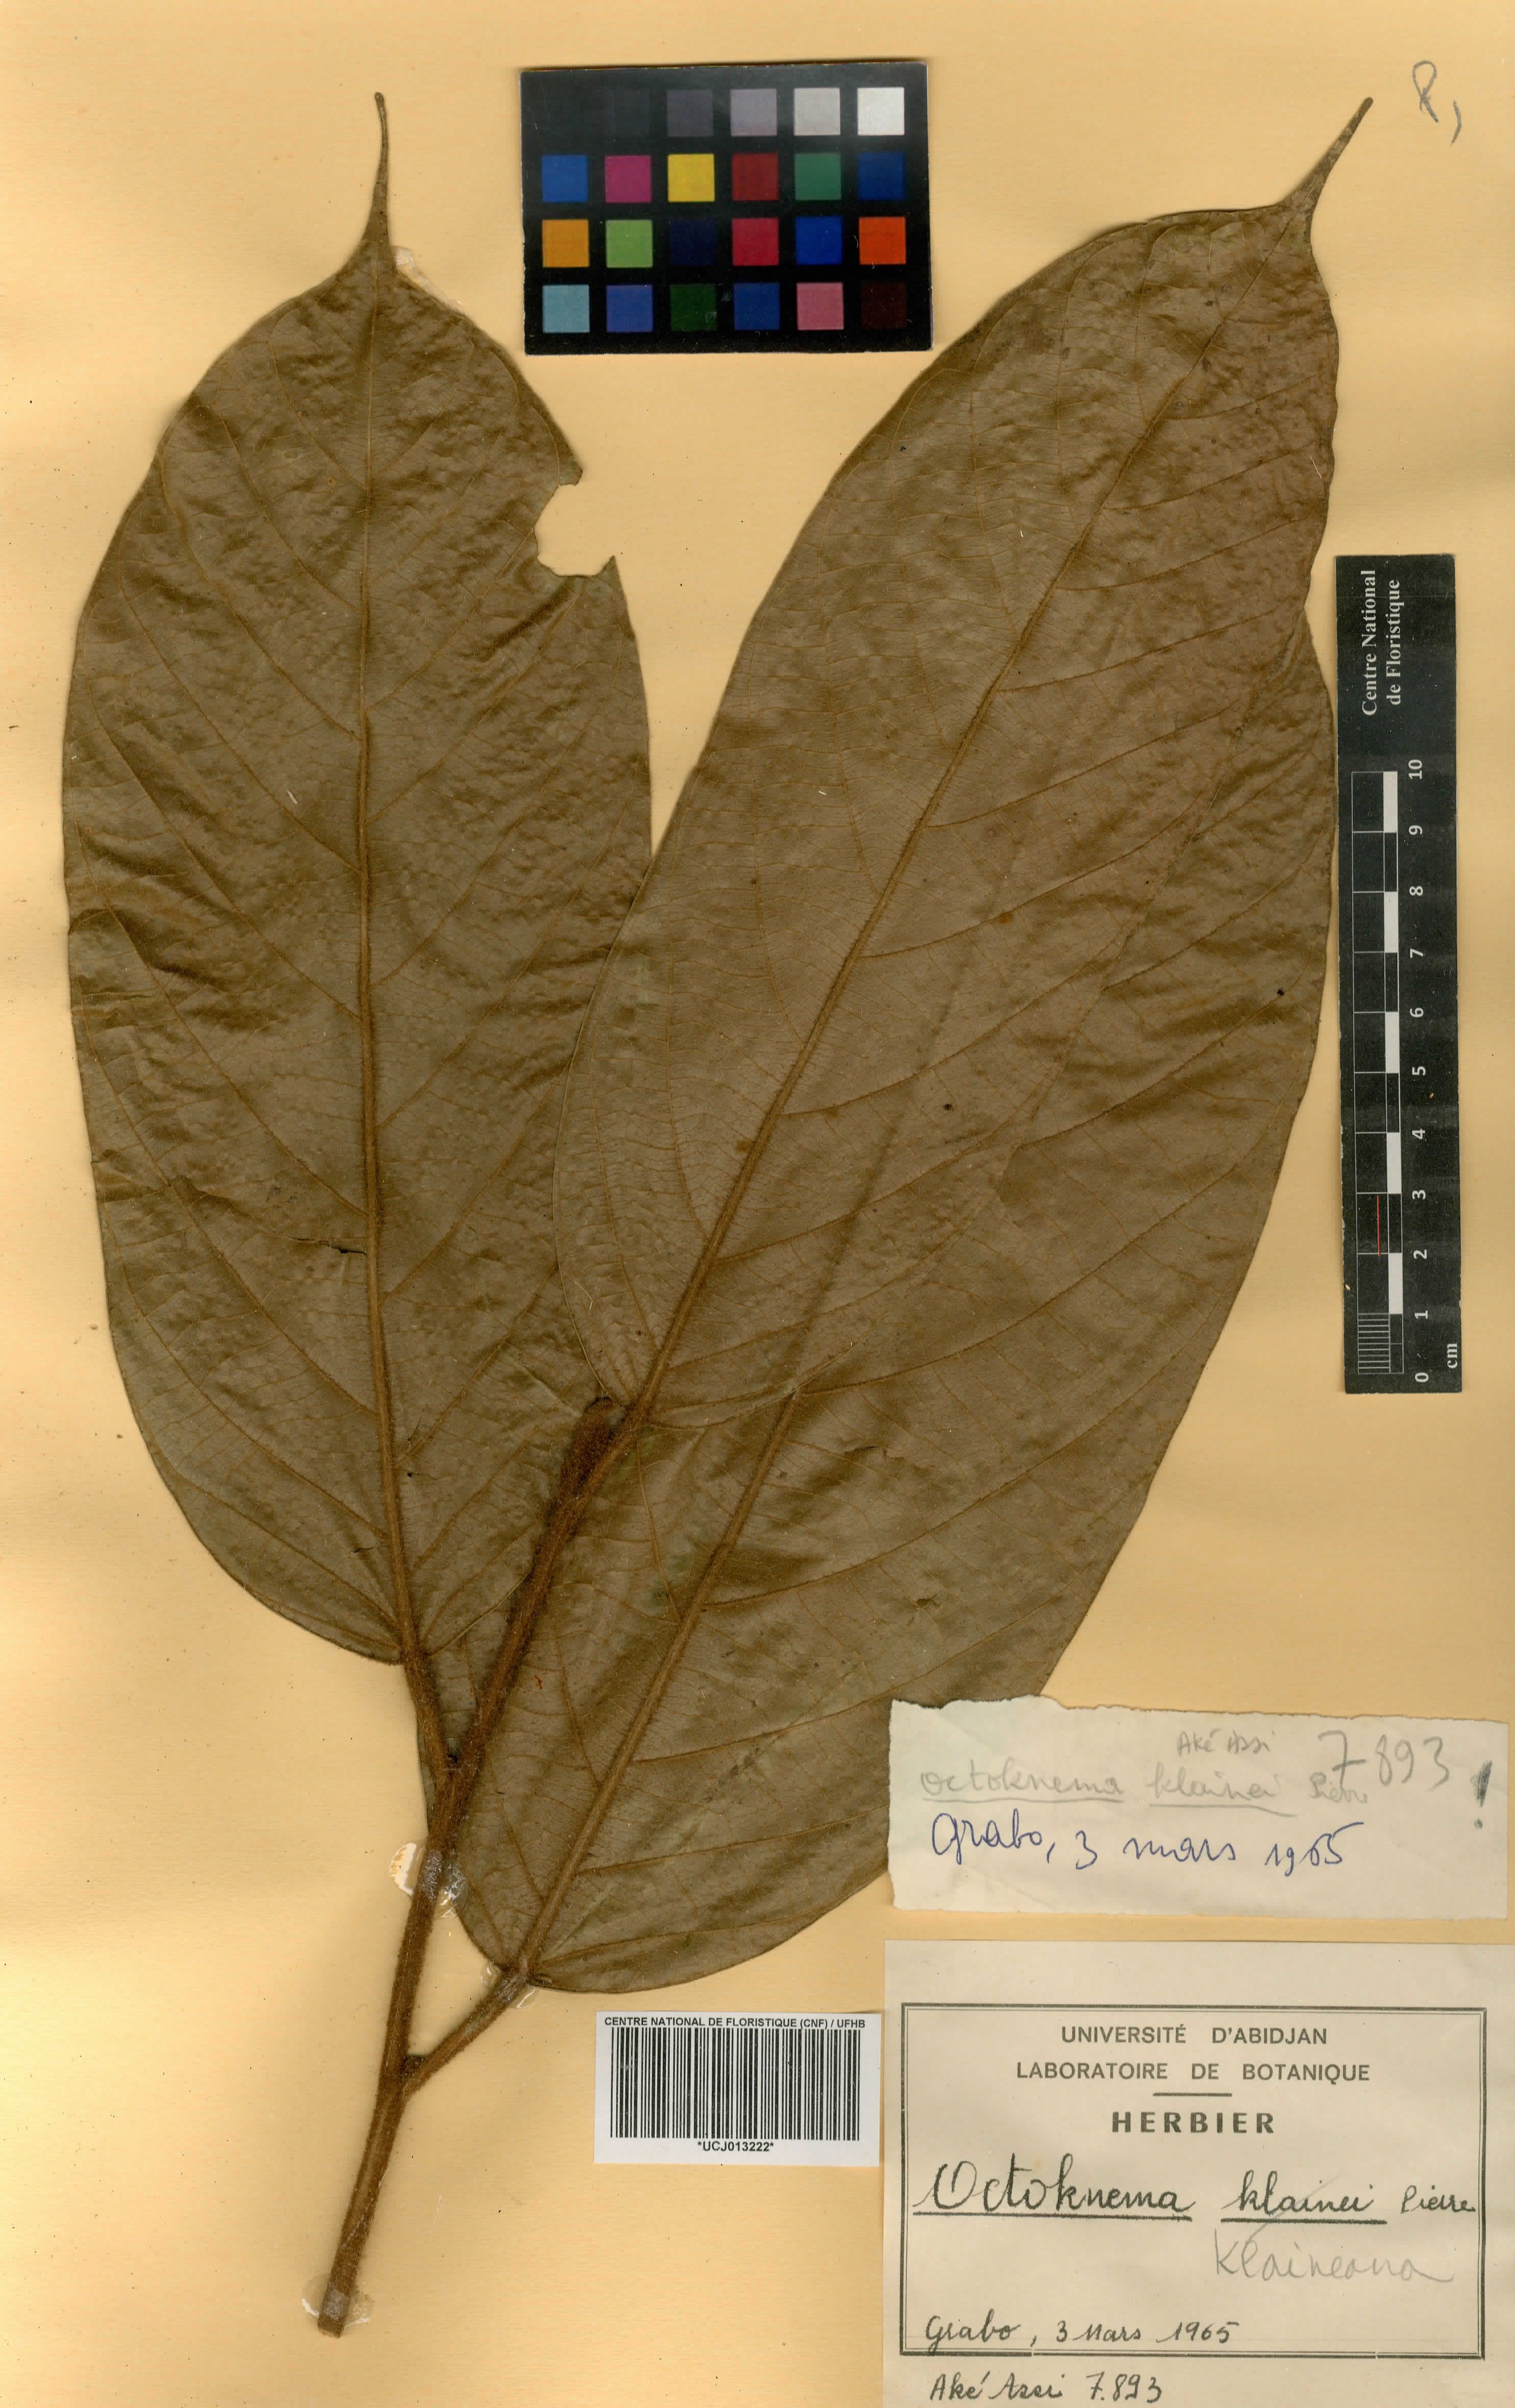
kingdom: Plantae
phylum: Tracheophyta
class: Magnoliopsida
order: Santalales
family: Octoknemaceae
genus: Octoknema
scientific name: Octoknema klaineana
